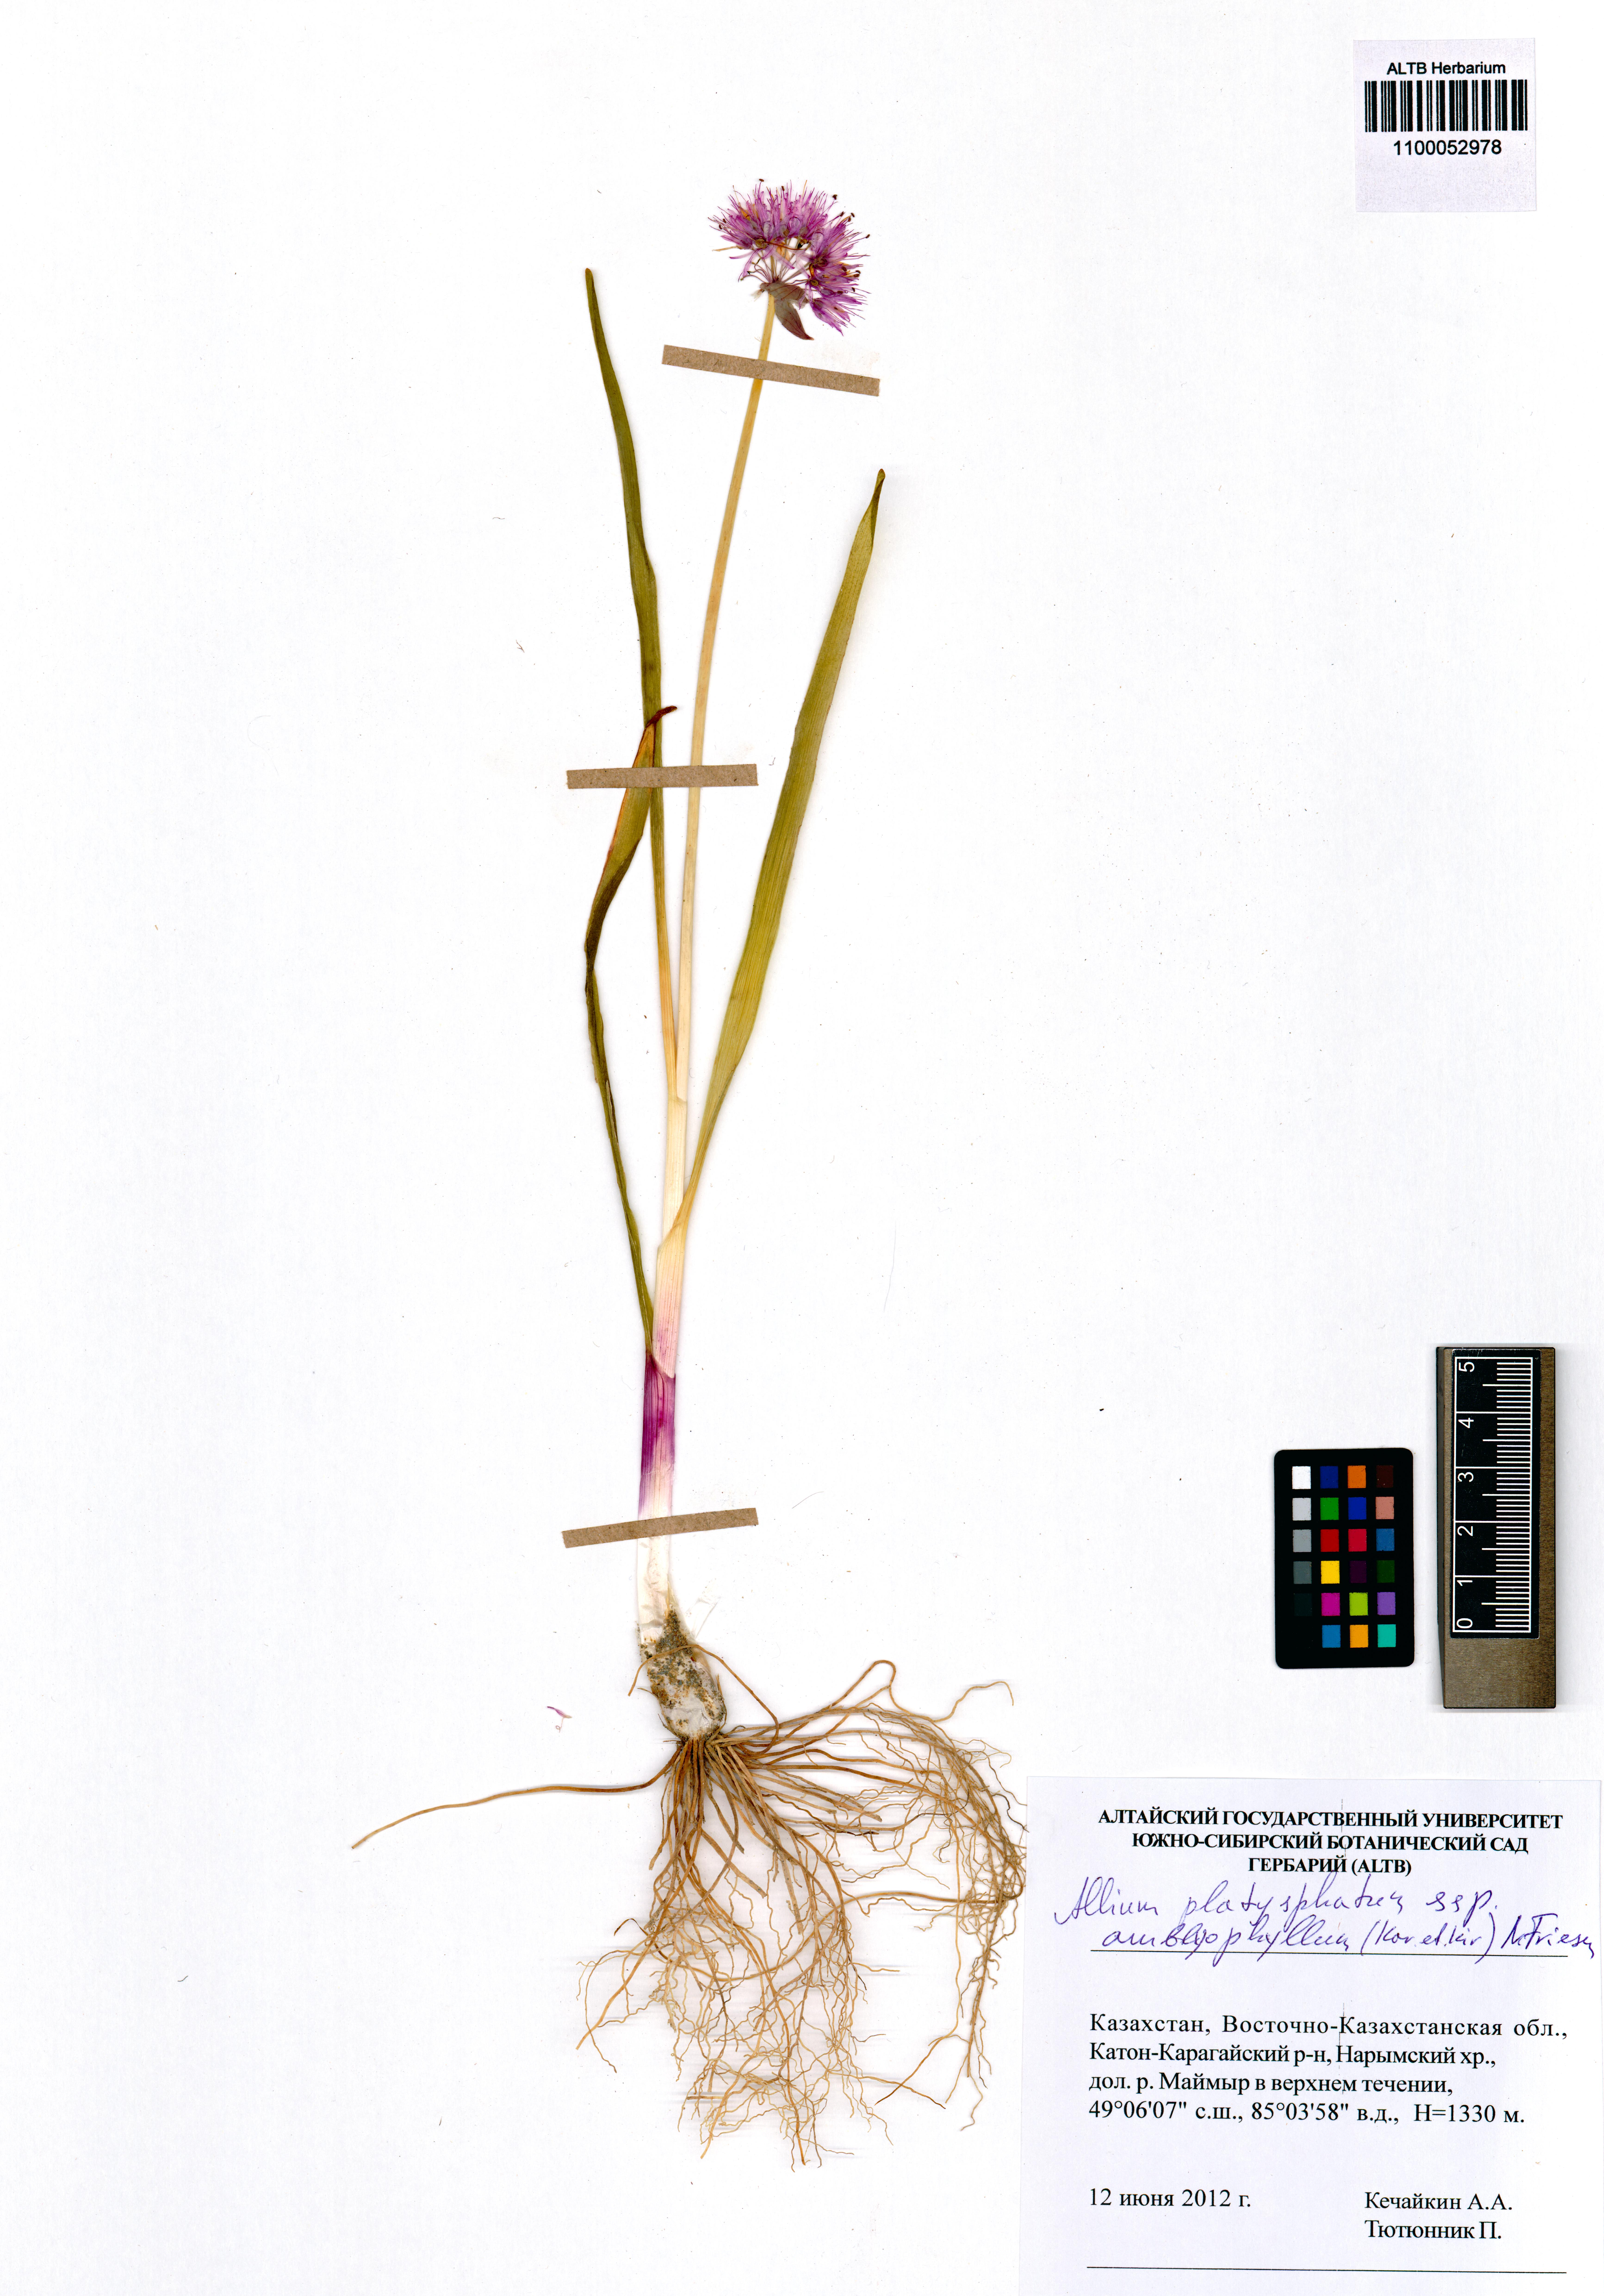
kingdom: Plantae
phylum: Tracheophyta
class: Liliopsida
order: Asparagales
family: Amaryllidaceae
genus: Allium
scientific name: Allium platyspathum
